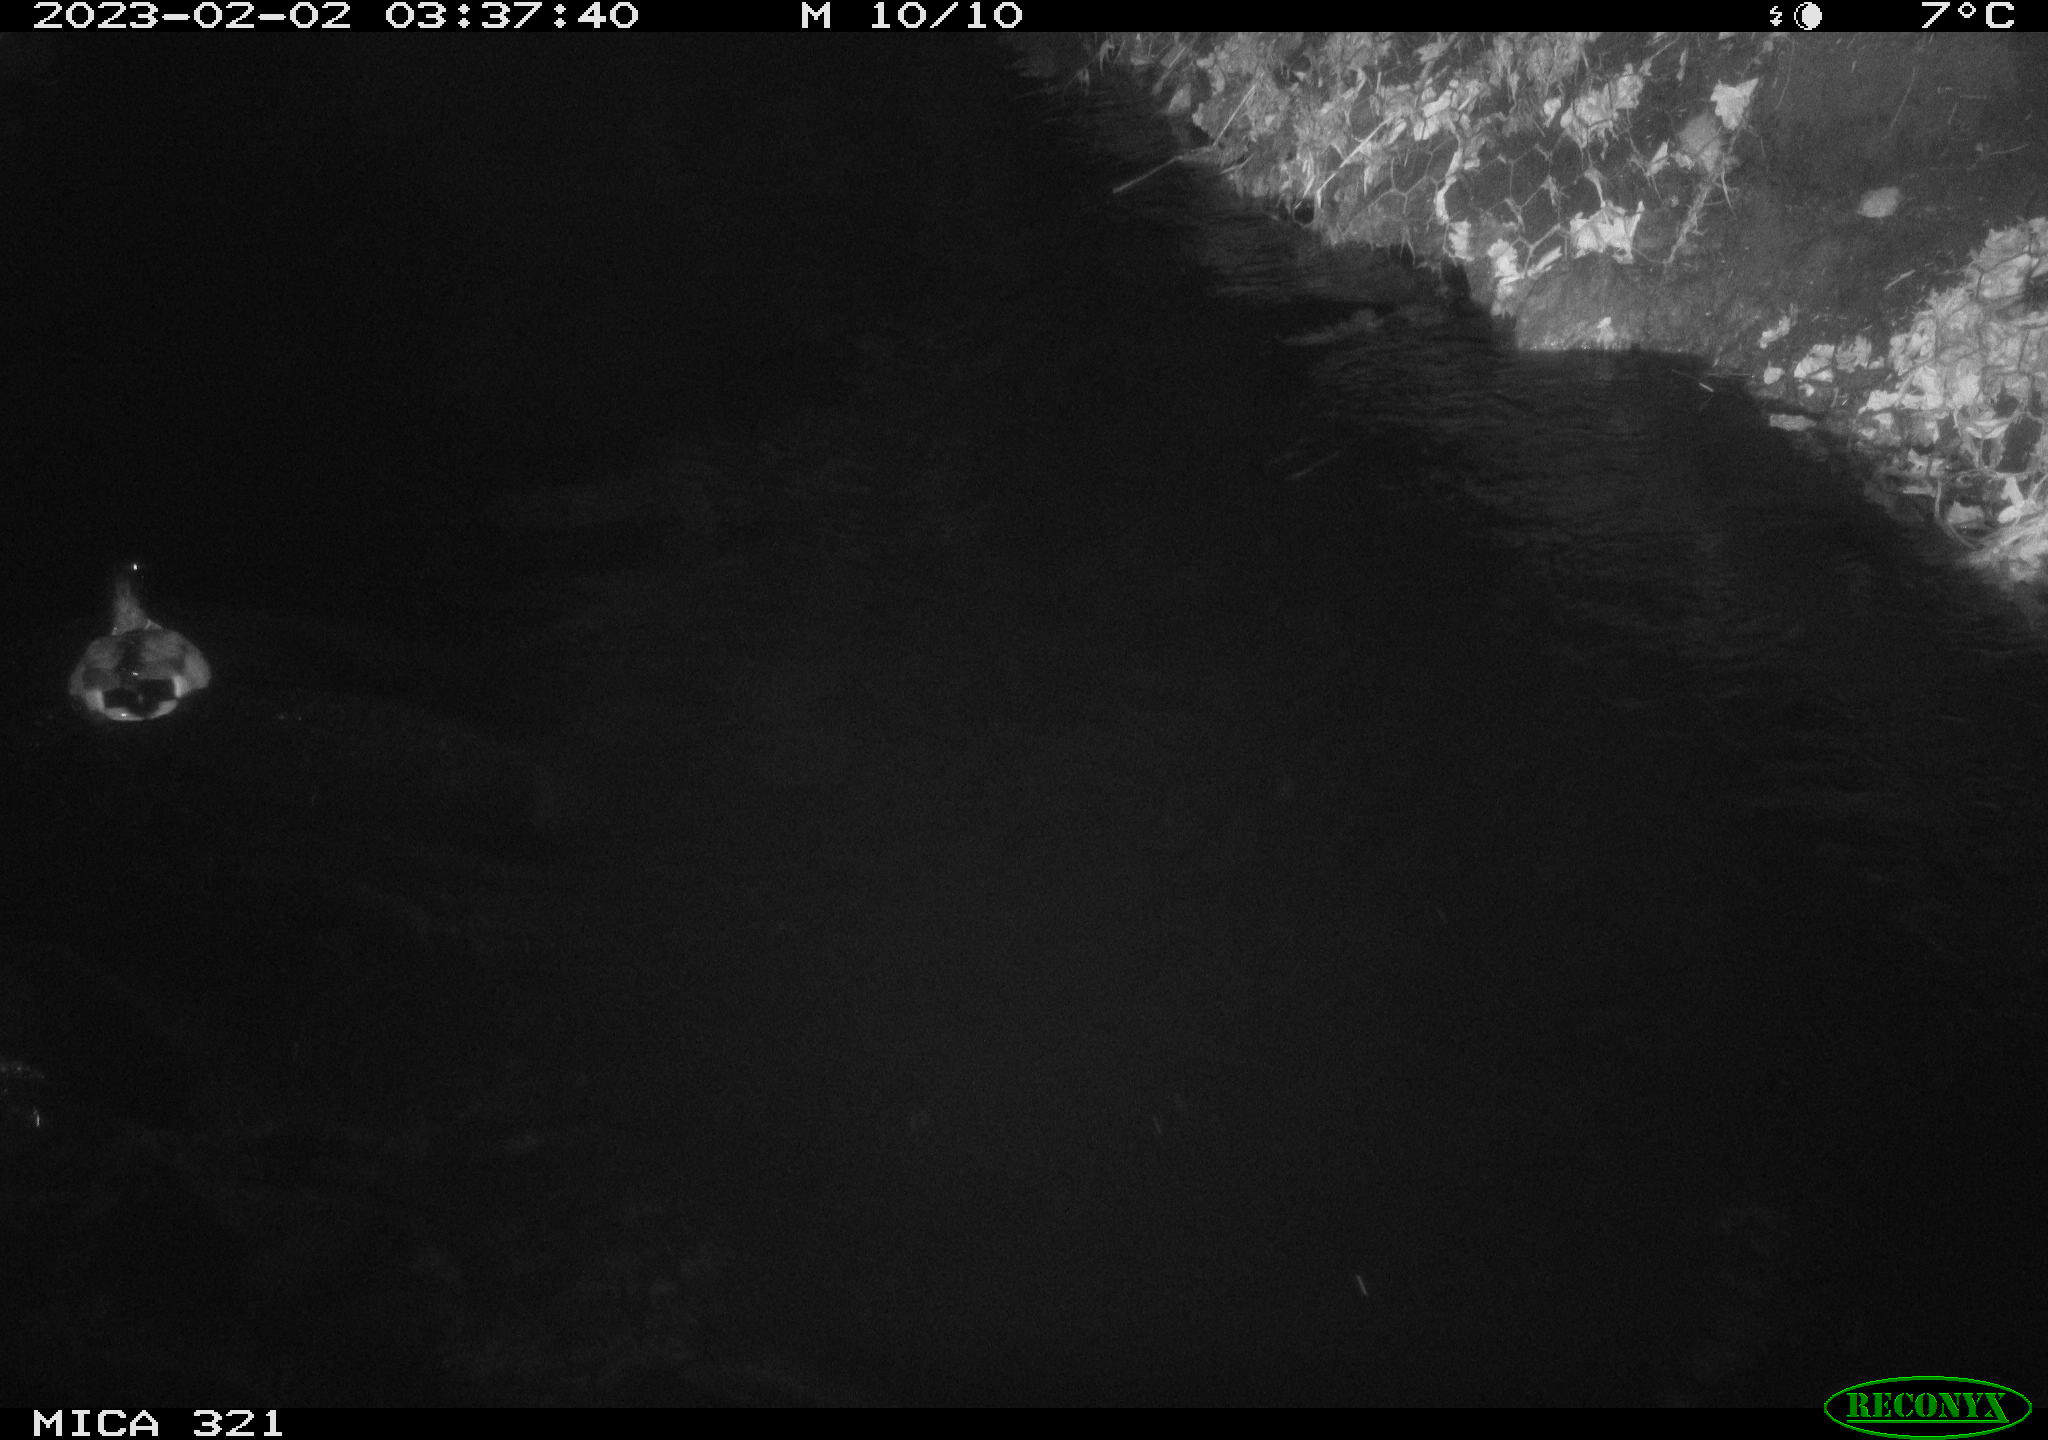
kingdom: Animalia
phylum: Chordata
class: Aves
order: Anseriformes
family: Anatidae
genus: Anas
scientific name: Anas
